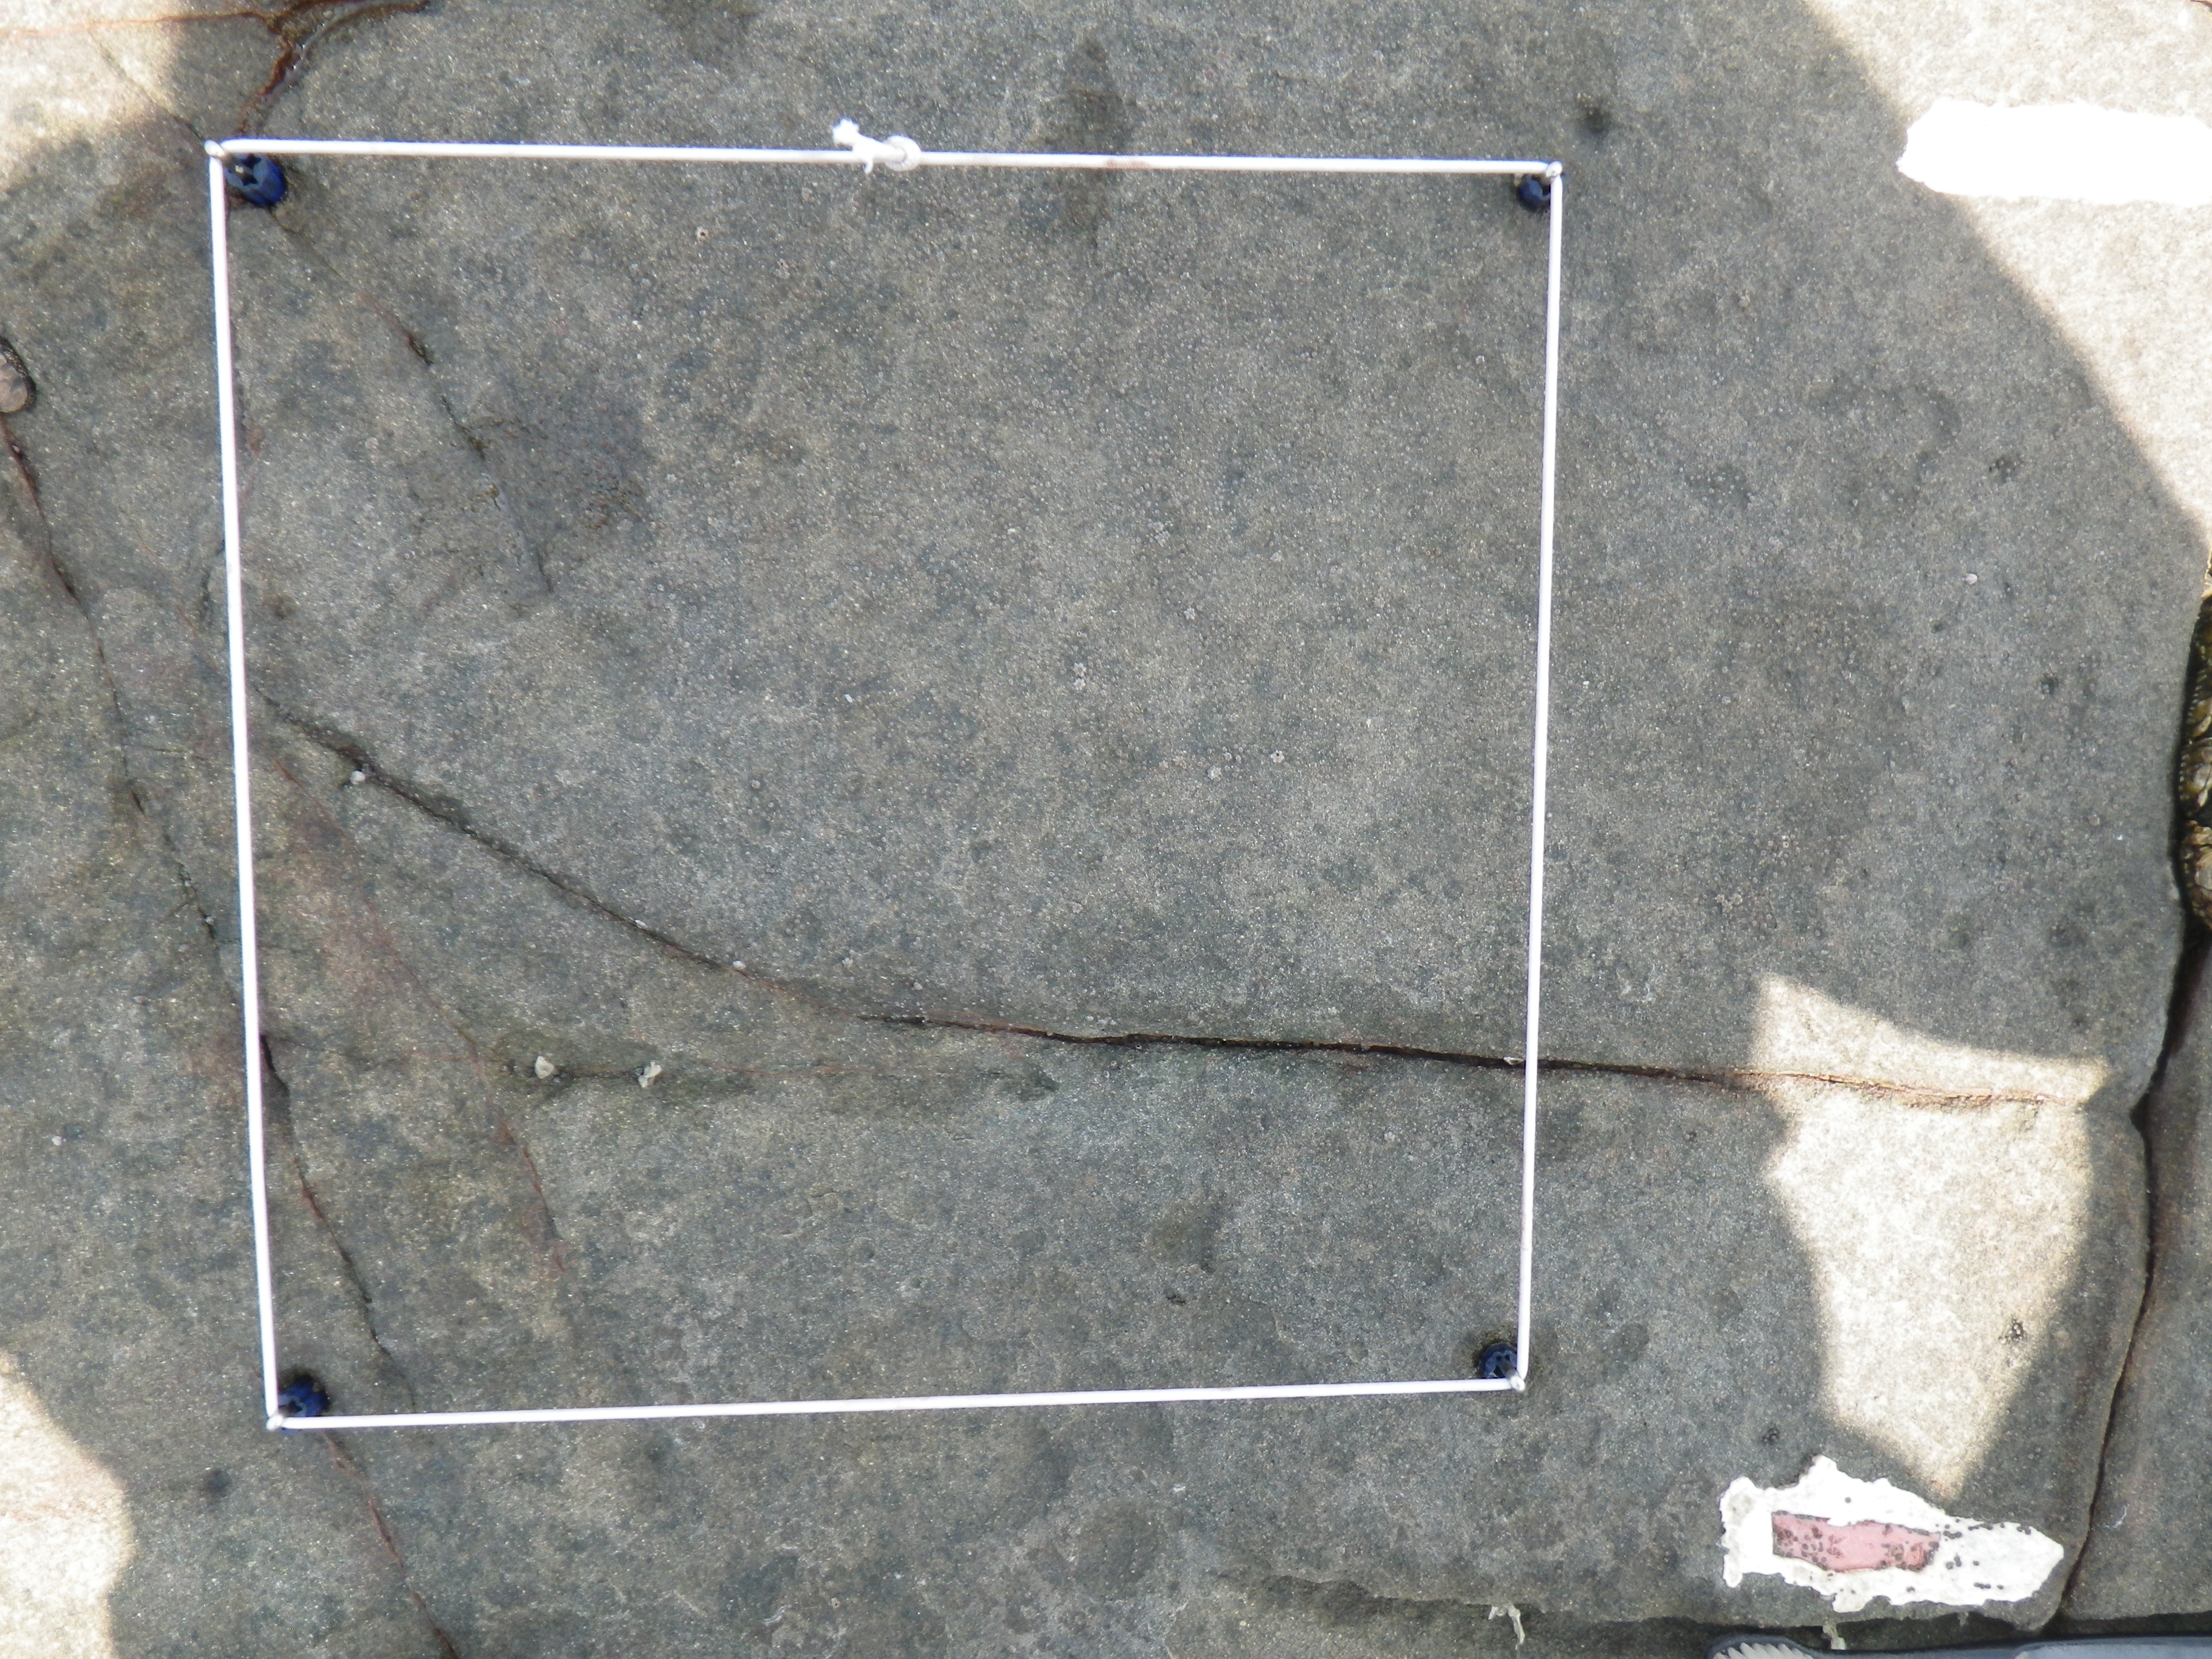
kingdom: Animalia
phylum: Arthropoda
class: Maxillopoda
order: Sessilia
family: Chthamalidae
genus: Chthamalus
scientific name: Chthamalus challengeri
